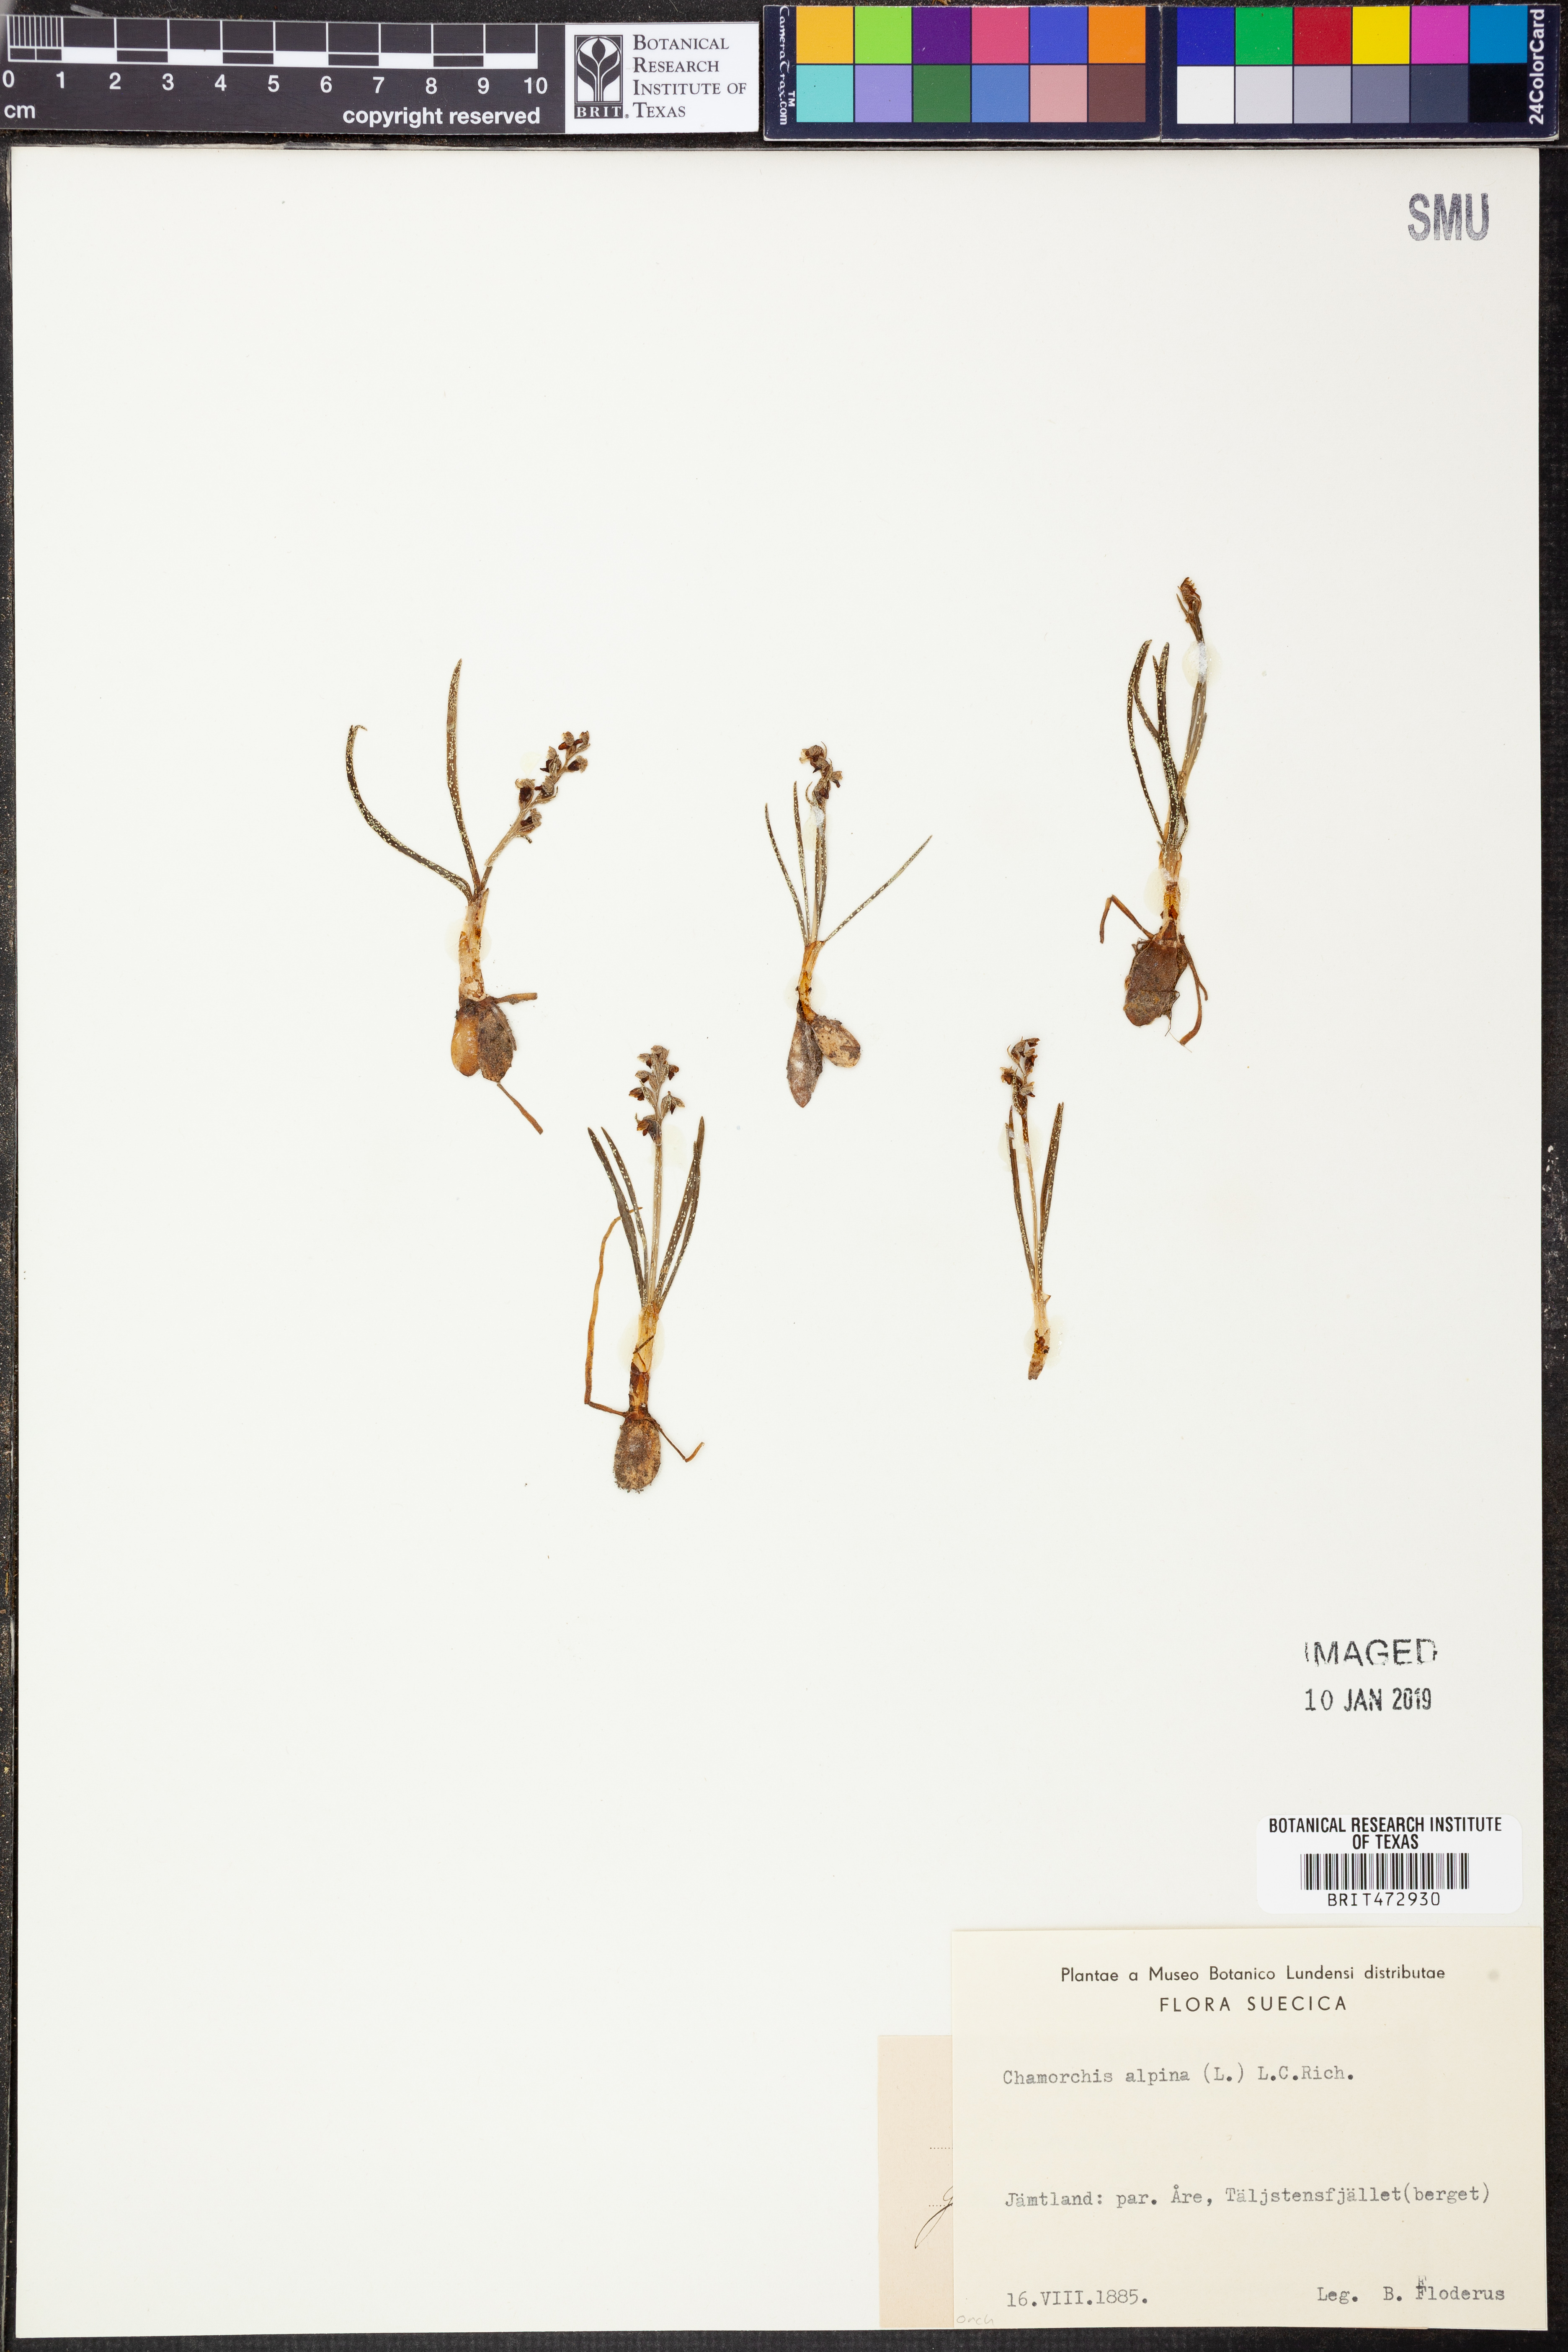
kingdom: Plantae
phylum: Tracheophyta
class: Liliopsida
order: Asparagales
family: Orchidaceae
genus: Chamorchis
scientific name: Chamorchis alpina
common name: Alpine chamorchis
